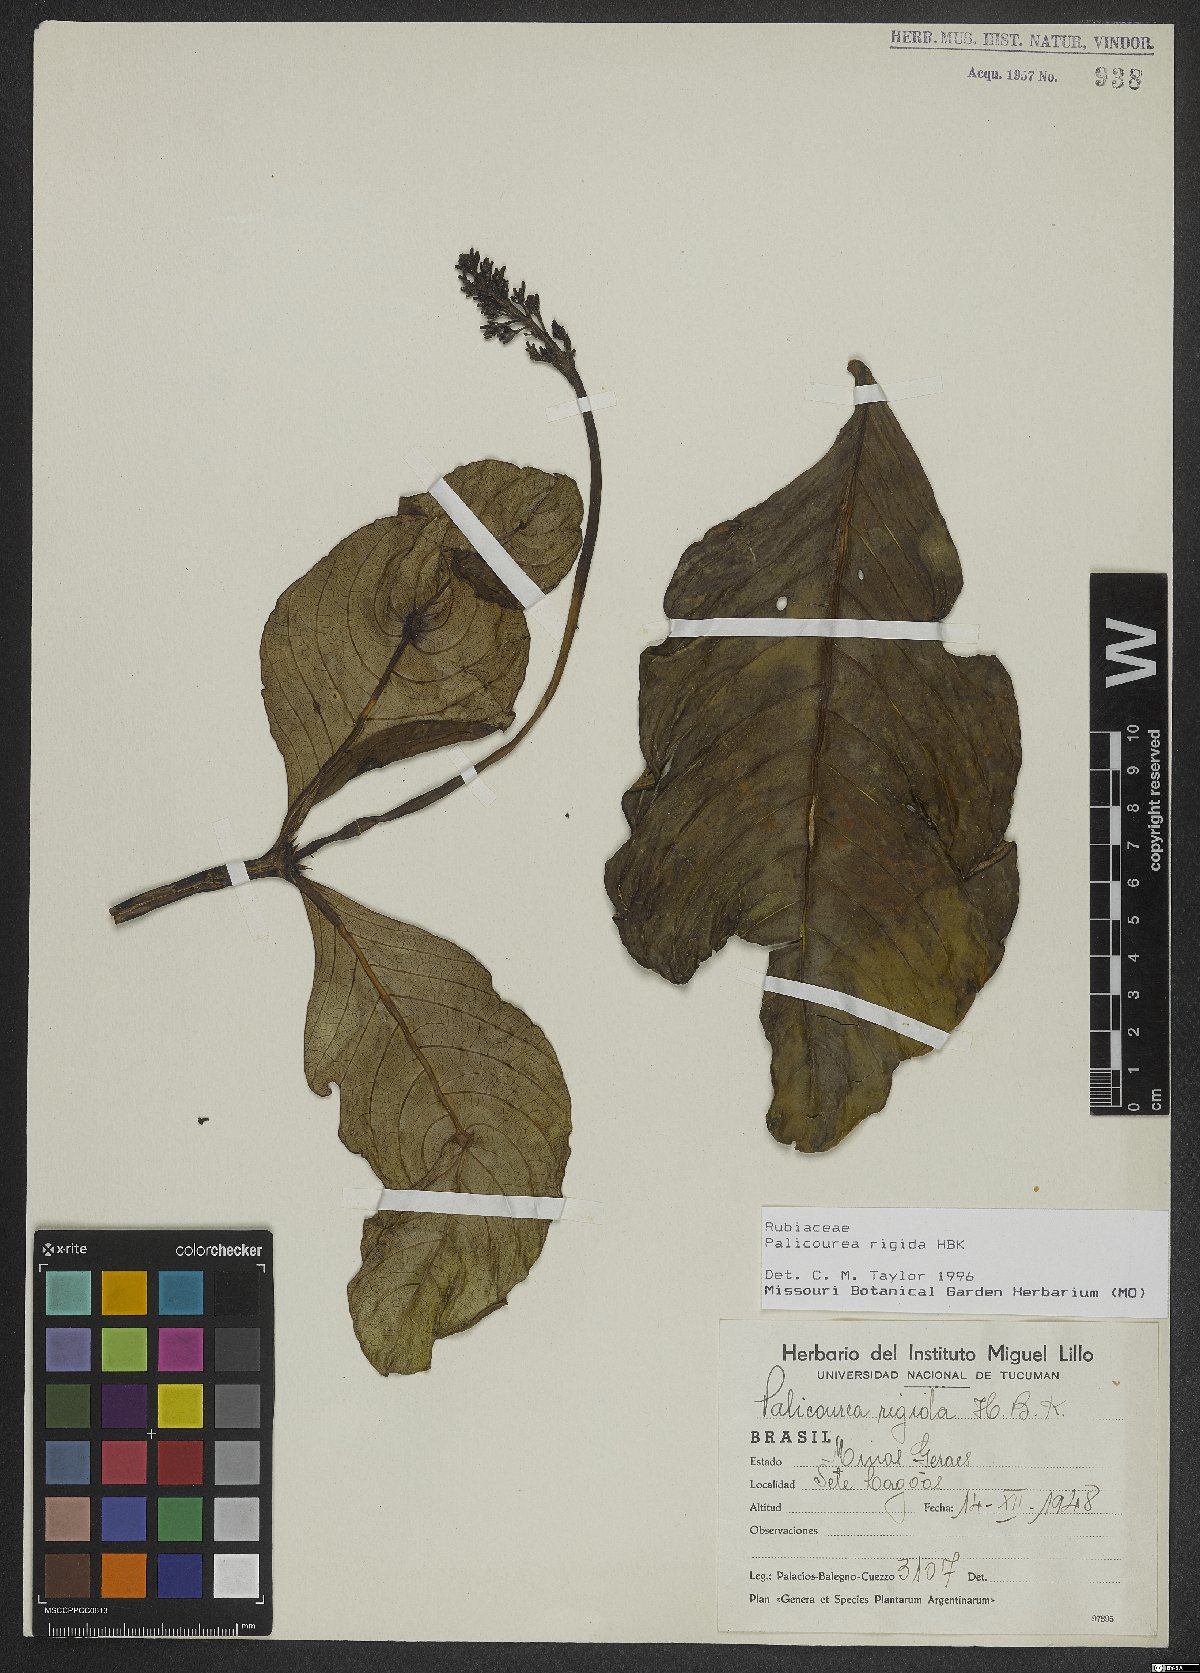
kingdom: Plantae
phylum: Tracheophyta
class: Magnoliopsida
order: Gentianales
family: Rubiaceae
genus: Palicourea
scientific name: Palicourea rigida
